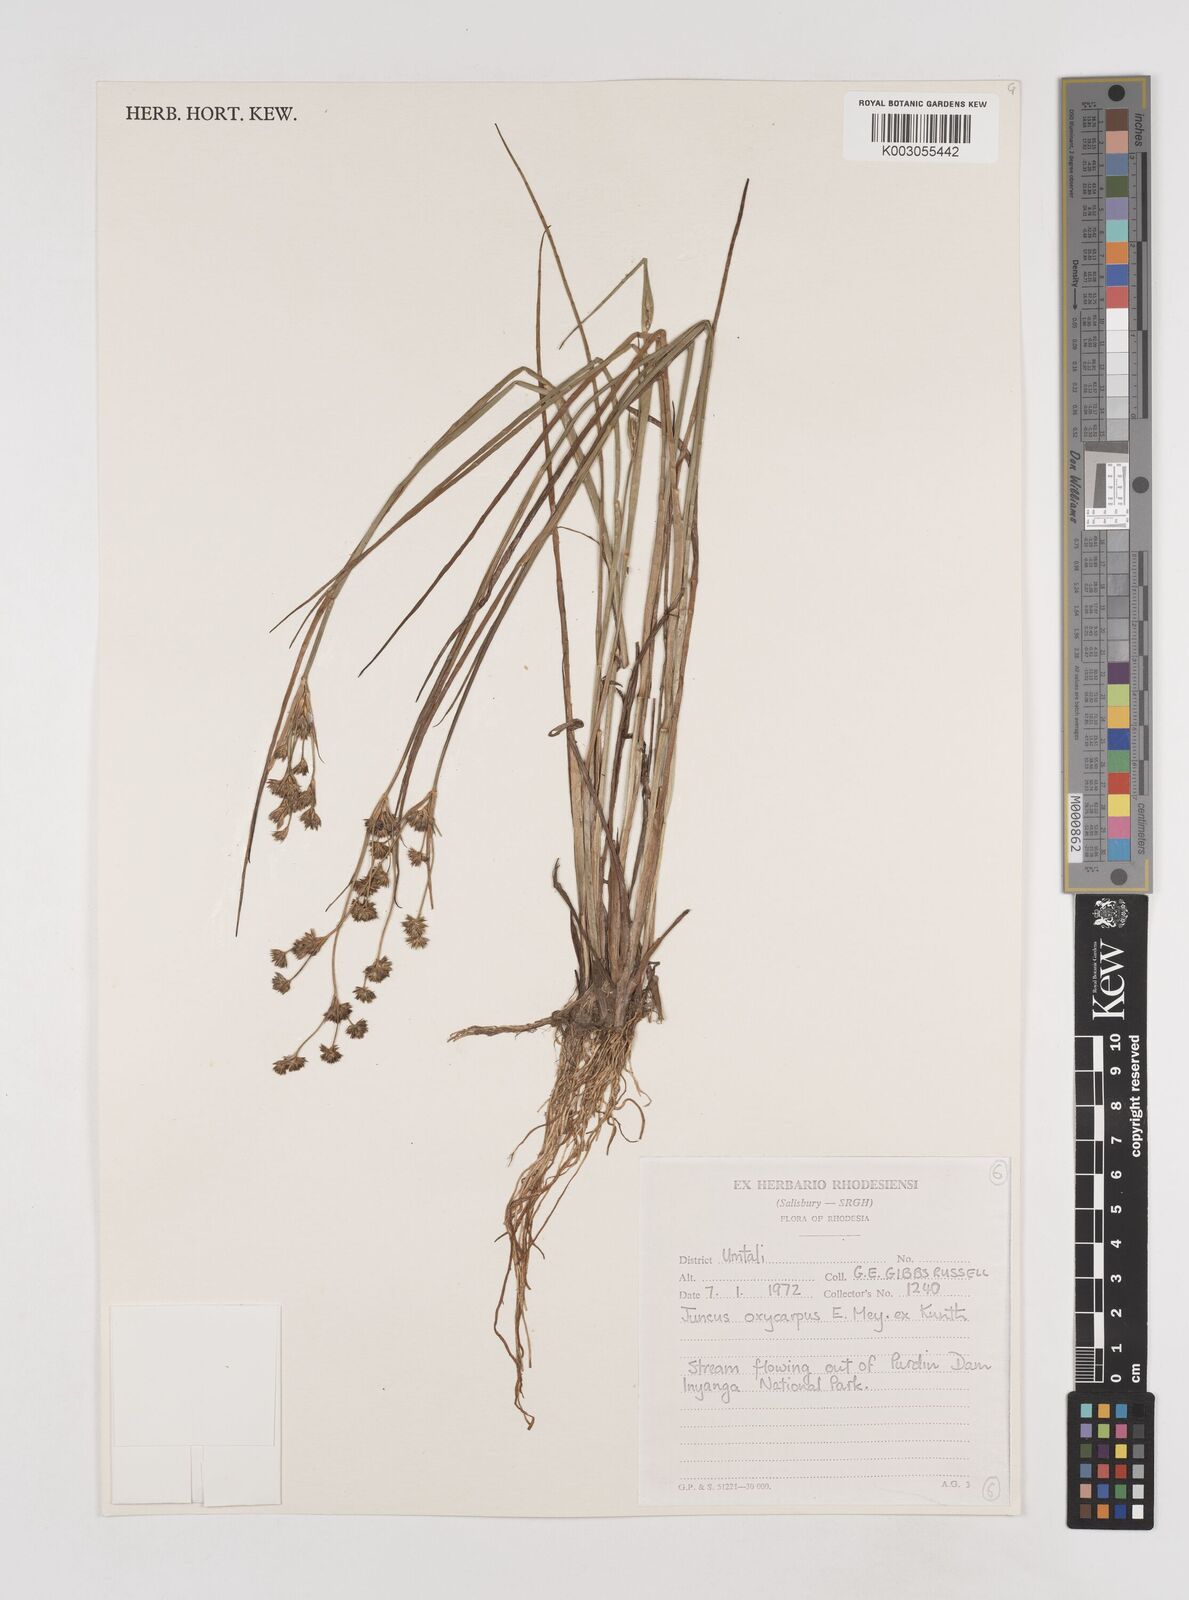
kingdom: Plantae
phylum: Tracheophyta
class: Liliopsida
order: Poales
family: Juncaceae
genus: Juncus
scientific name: Juncus oxycarpus
